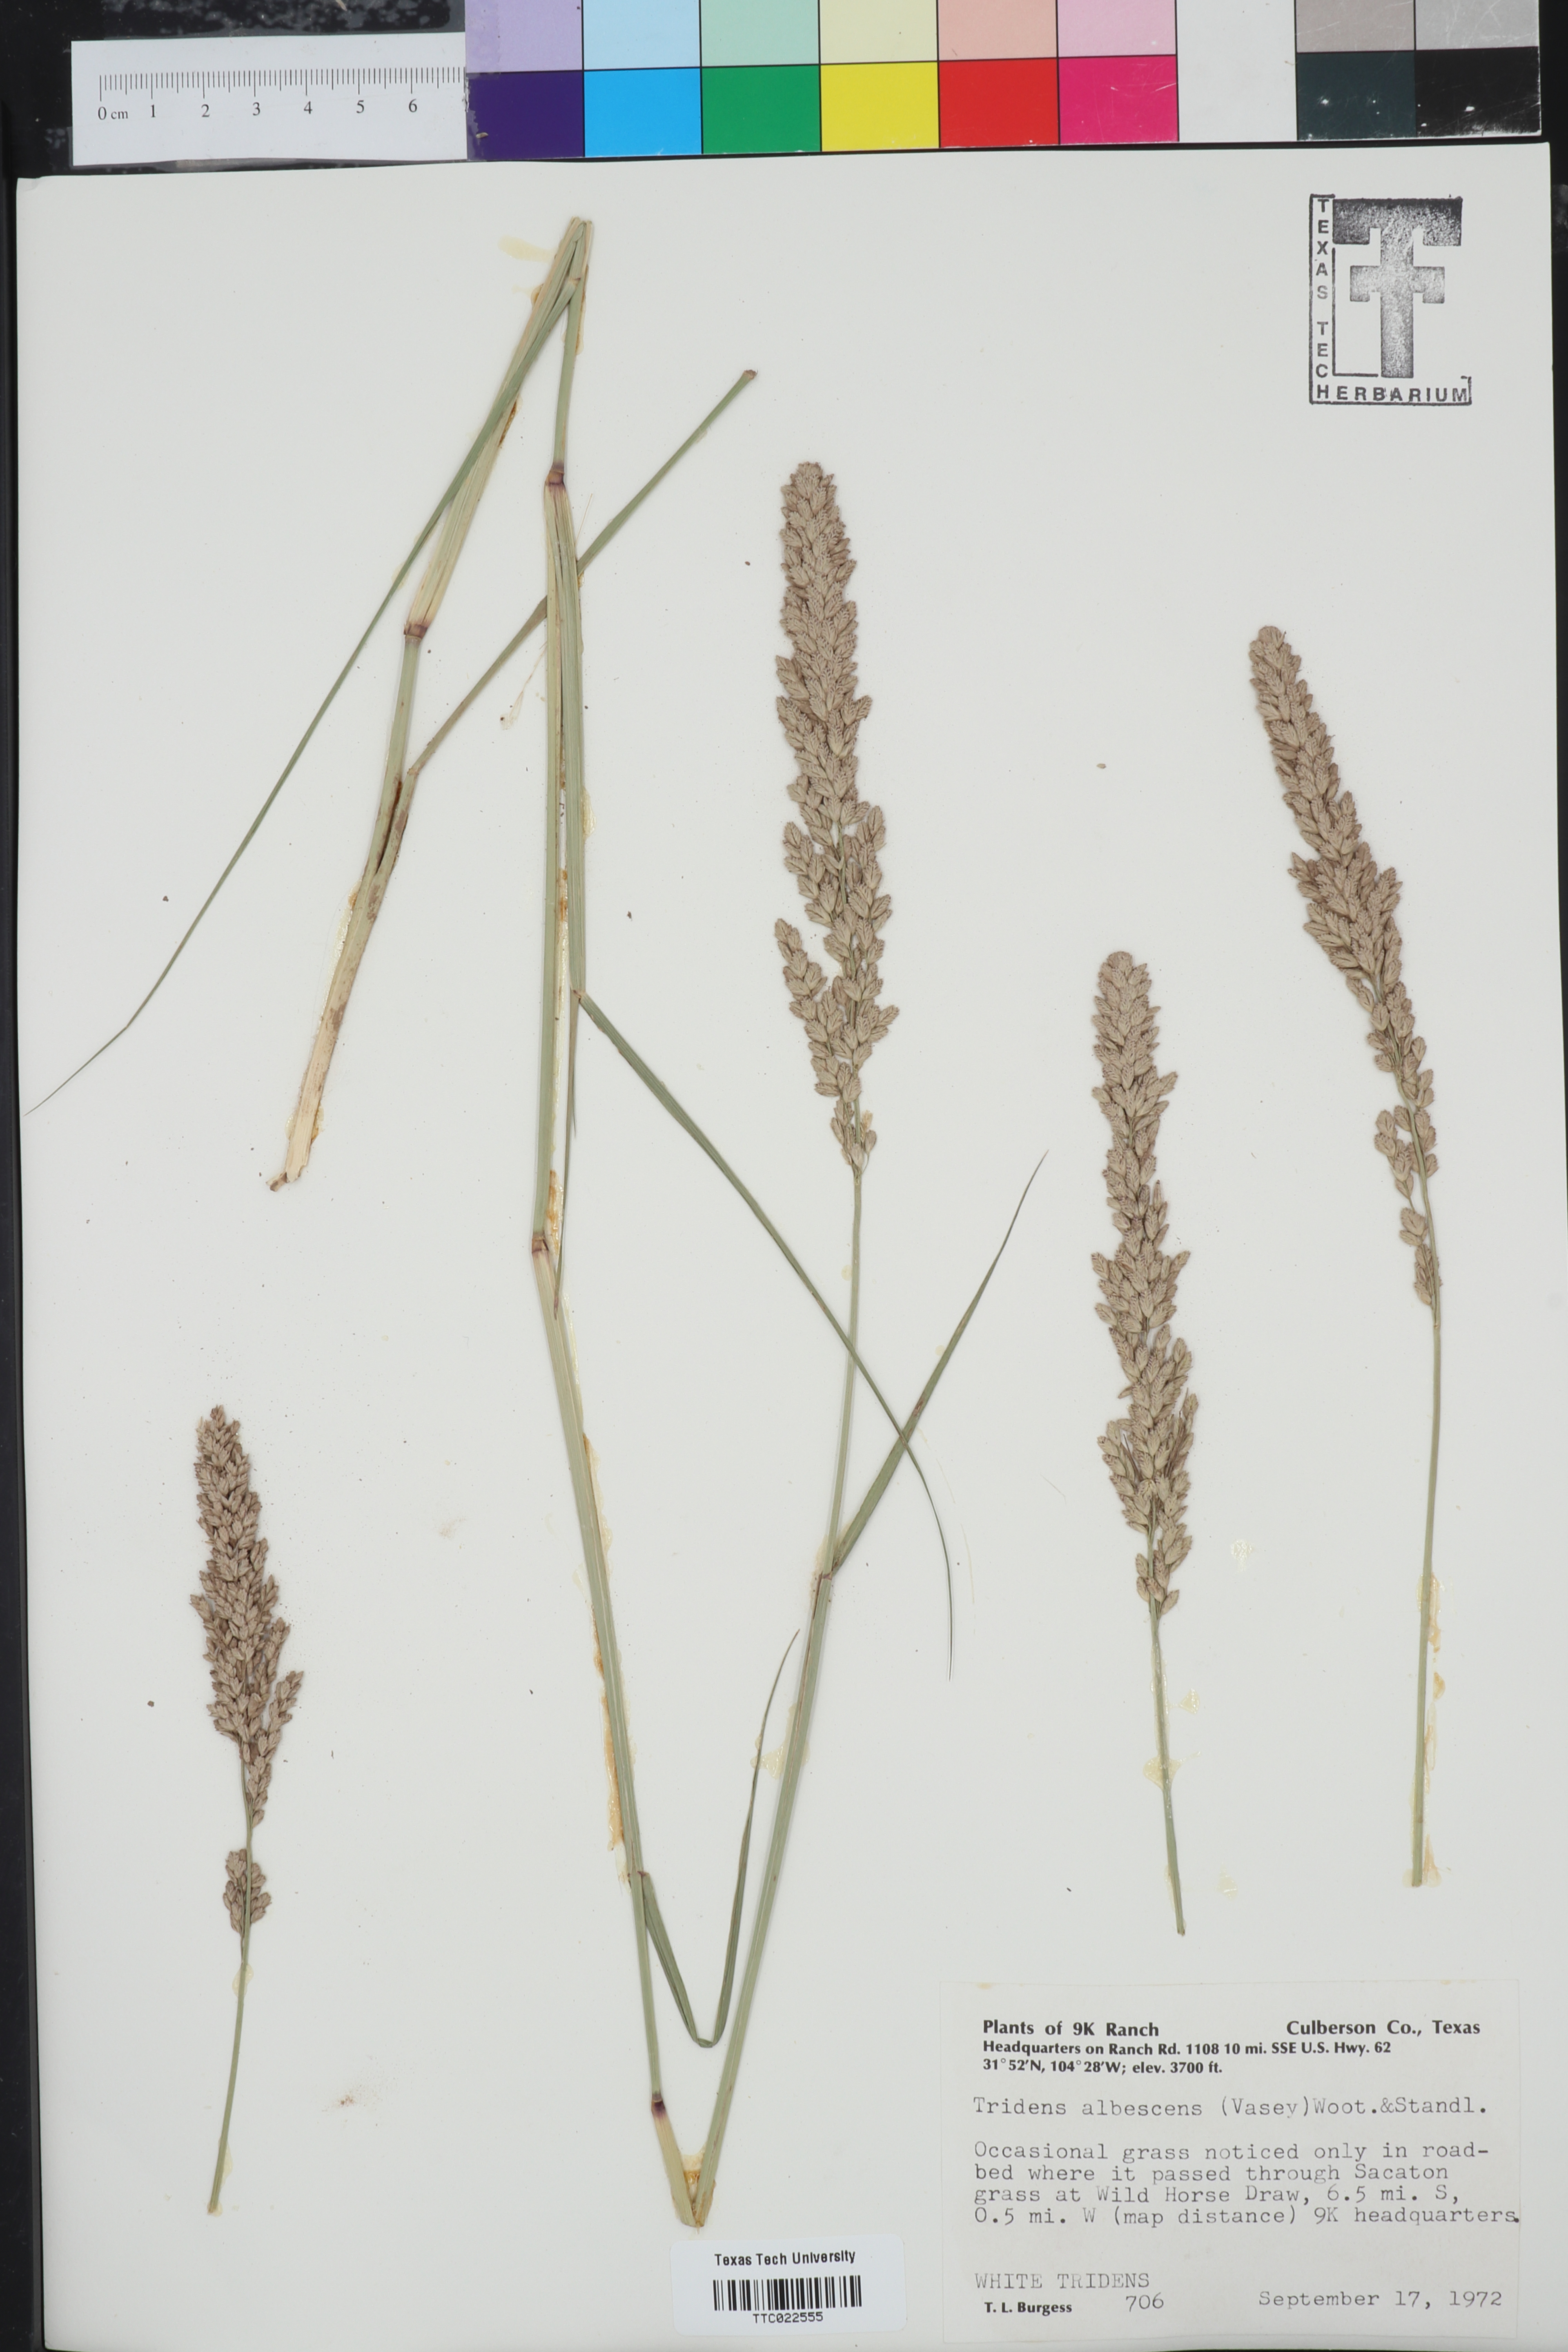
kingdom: Plantae
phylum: Tracheophyta
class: Liliopsida
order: Poales
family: Poaceae
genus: Tridens
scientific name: Tridens albescens
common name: White tridens
